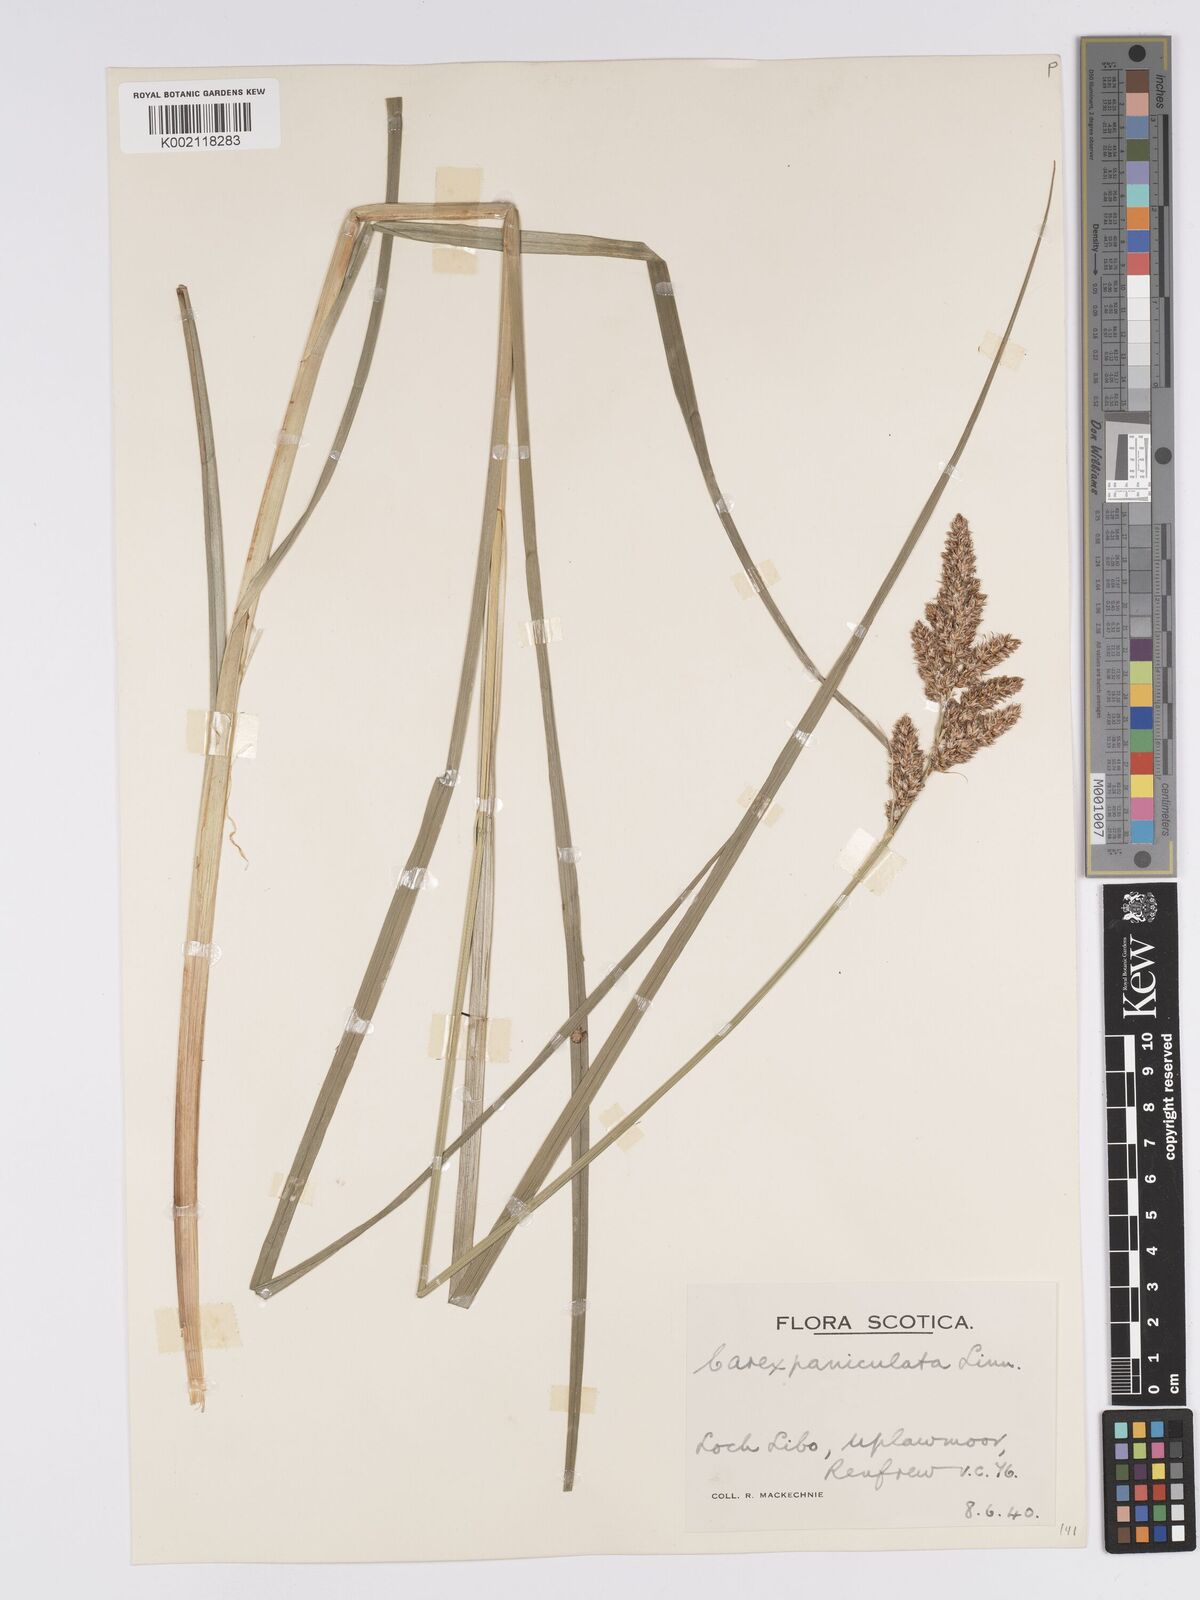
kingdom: Plantae
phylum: Tracheophyta
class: Liliopsida
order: Poales
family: Cyperaceae
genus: Carex
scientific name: Carex paniculata
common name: Greater tussock-sedge
